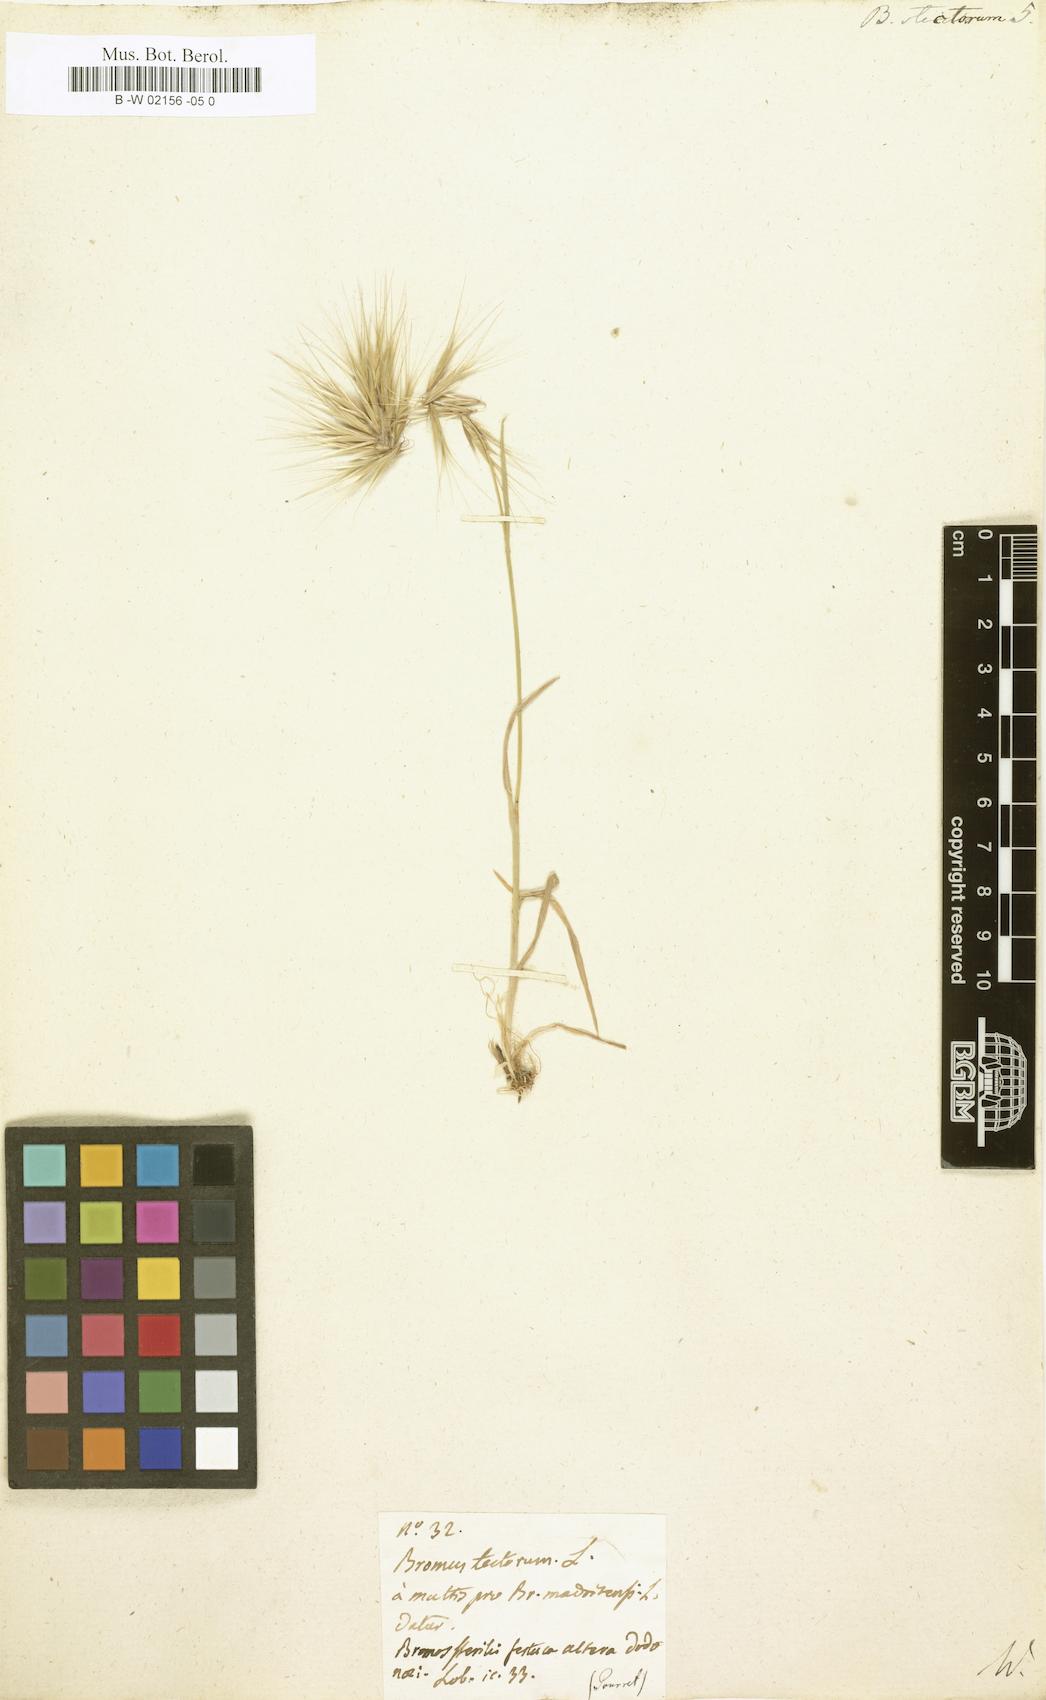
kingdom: Plantae
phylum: Tracheophyta
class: Liliopsida
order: Poales
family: Poaceae
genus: Bromus
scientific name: Bromus tectorum
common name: Cheatgrass
